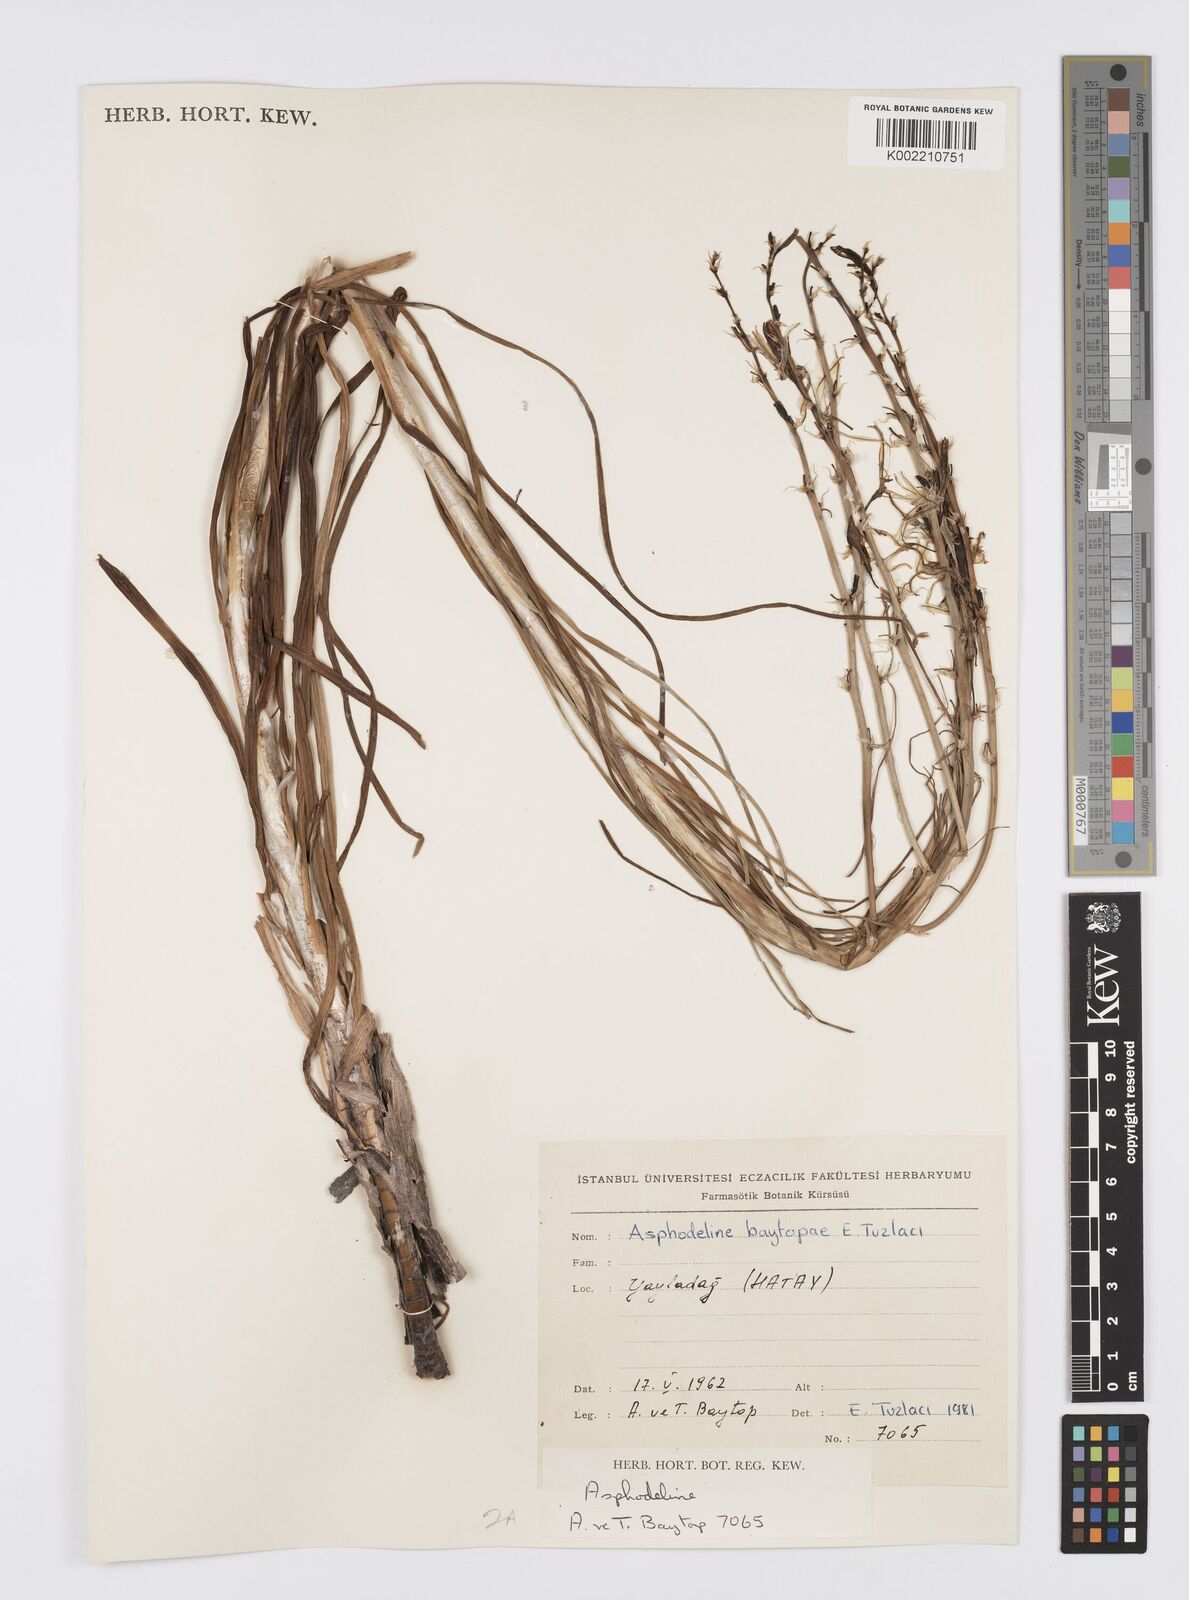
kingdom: Plantae
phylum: Tracheophyta
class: Liliopsida
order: Asparagales
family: Asphodelaceae
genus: Asphodeline
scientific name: Asphodeline baytopiae
